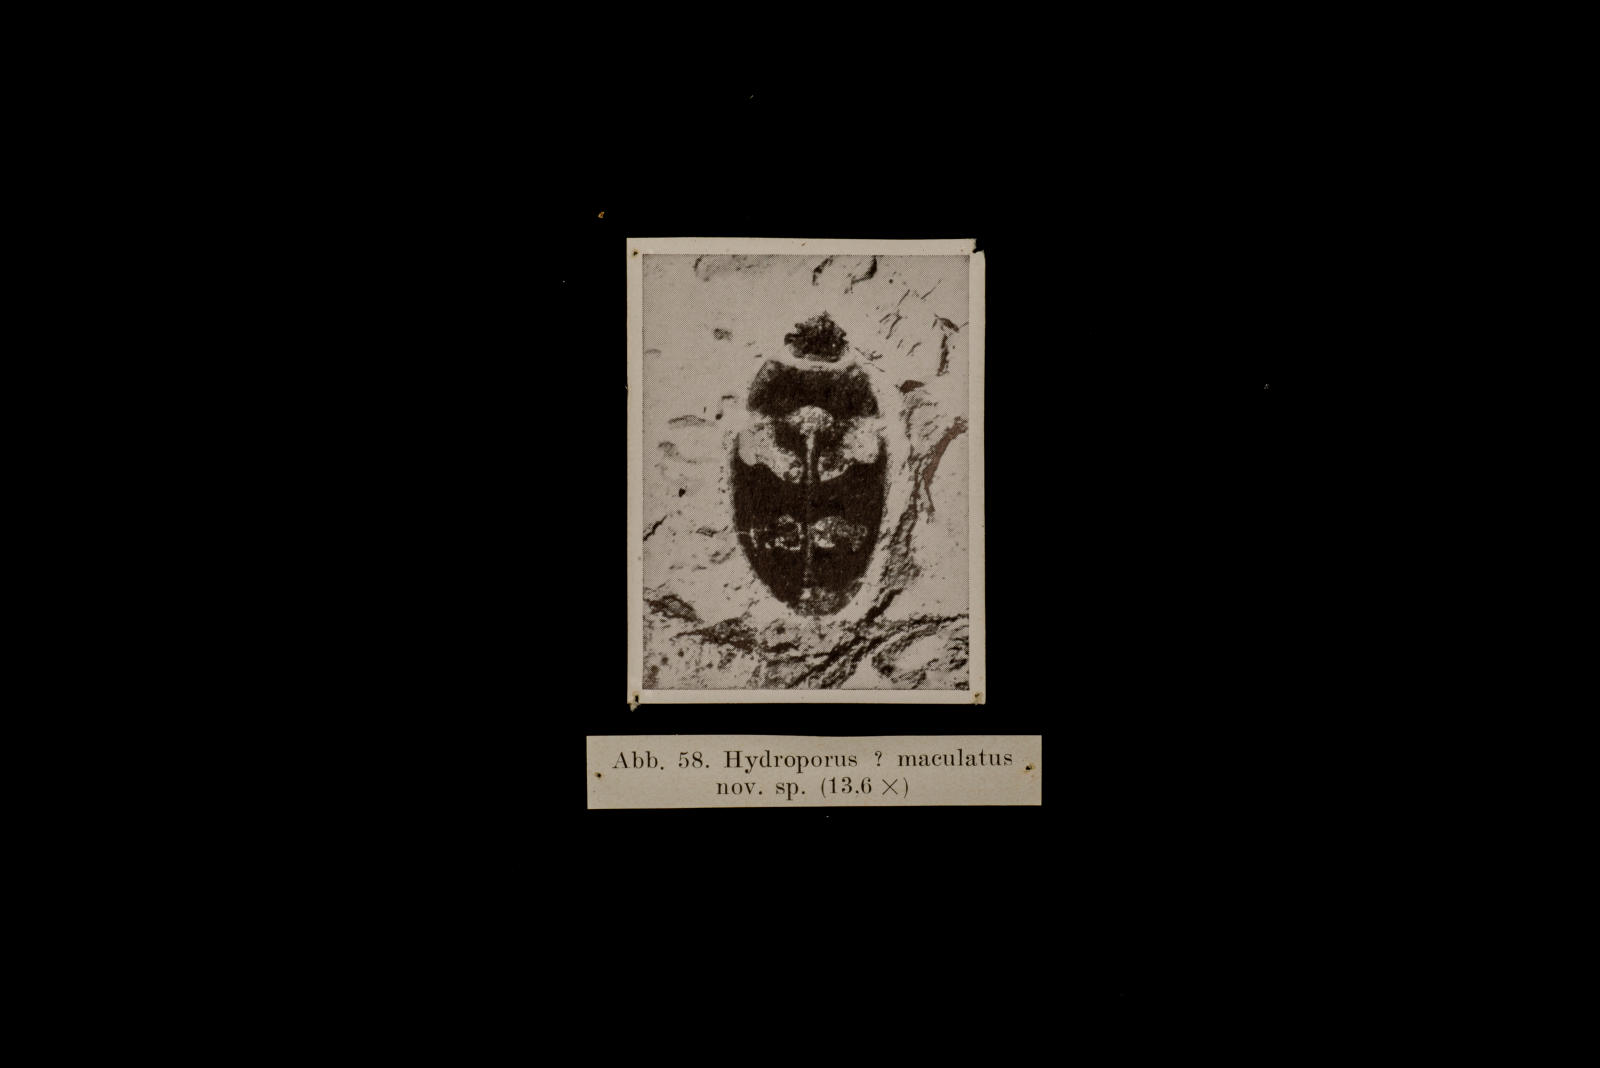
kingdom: Animalia
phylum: Arthropoda
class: Insecta
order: Coleoptera
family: Dytiscidae
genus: Hydroporus
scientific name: Hydroporus statzi
